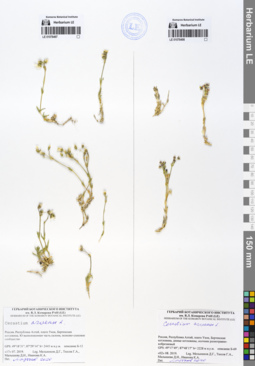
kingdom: Plantae
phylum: Tracheophyta
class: Magnoliopsida
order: Caryophyllales
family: Caryophyllaceae
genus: Cerastium
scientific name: Cerastium arvense
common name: Field mouse-ear
